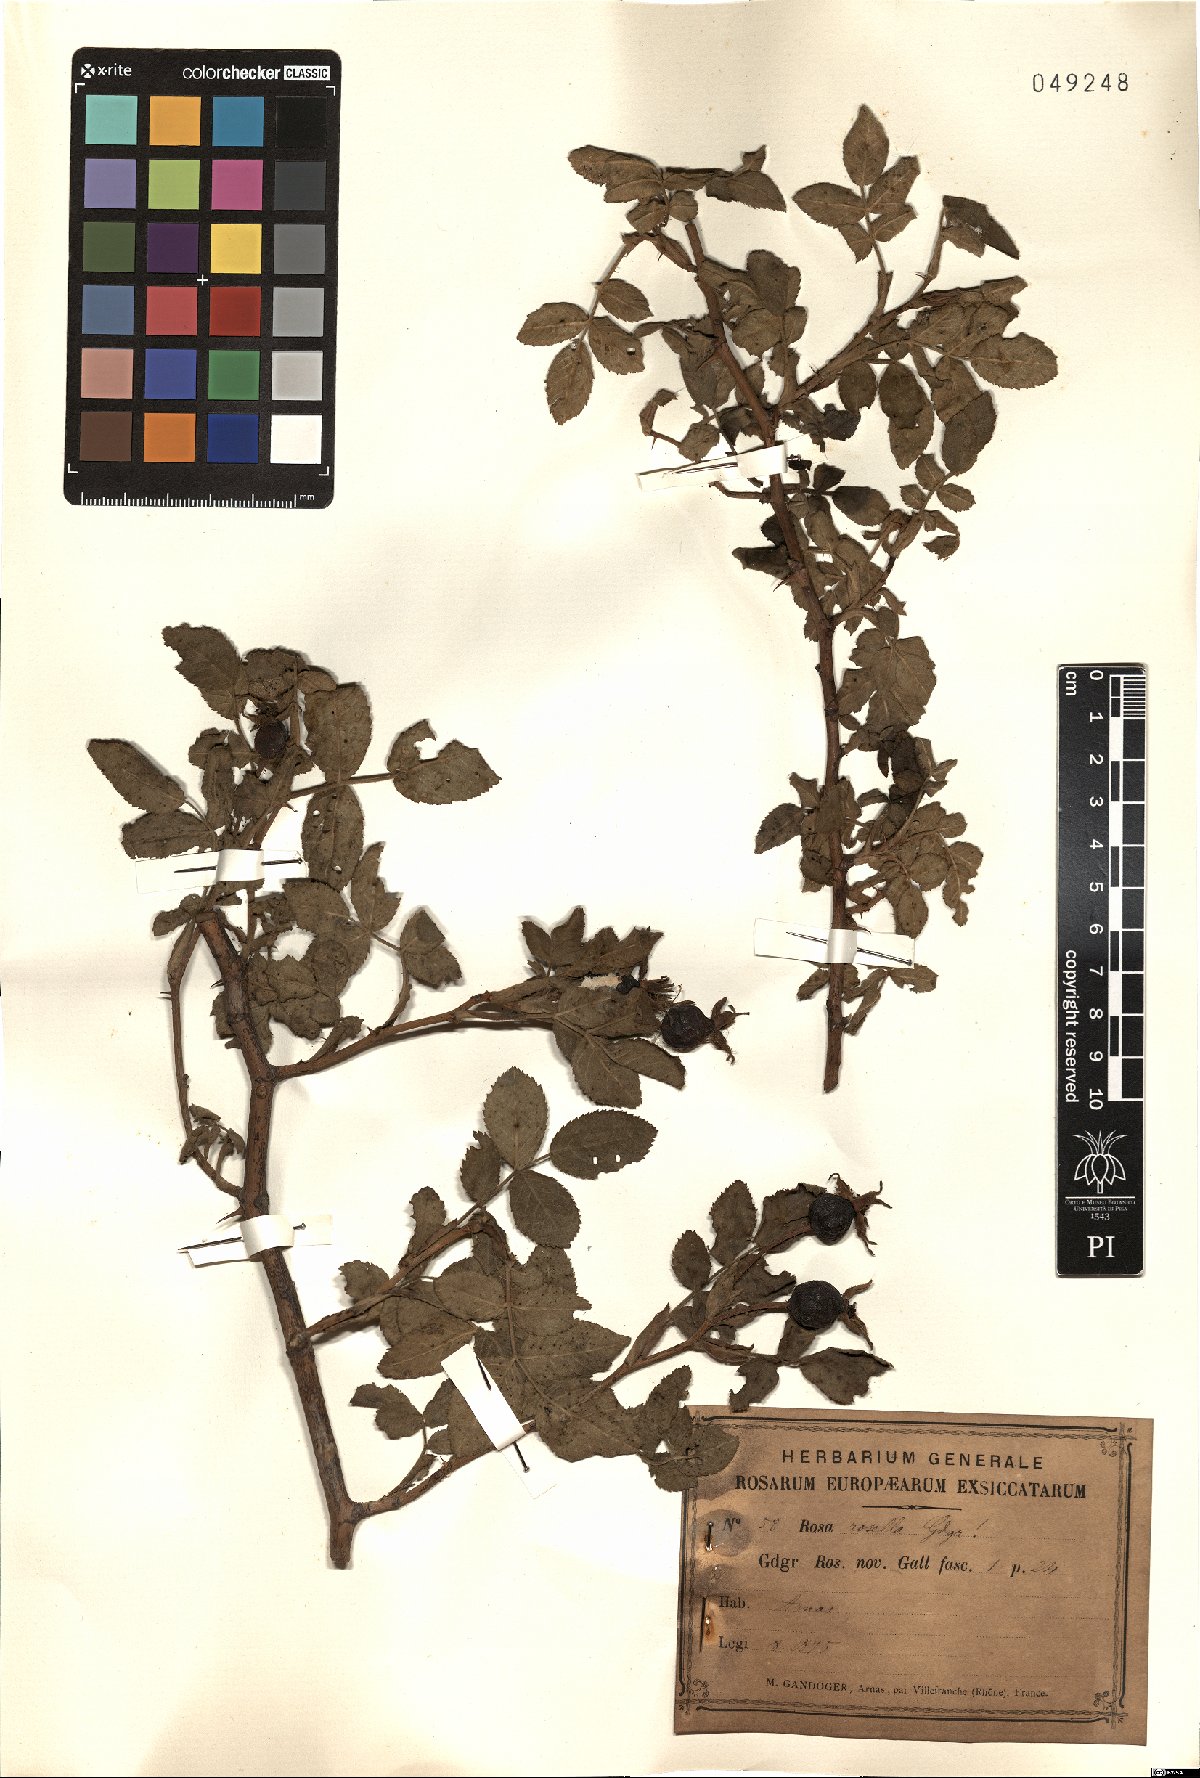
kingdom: Plantae
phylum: Tracheophyta
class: Magnoliopsida
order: Rosales
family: Rosaceae
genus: Rosa
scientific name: Rosa rosella
